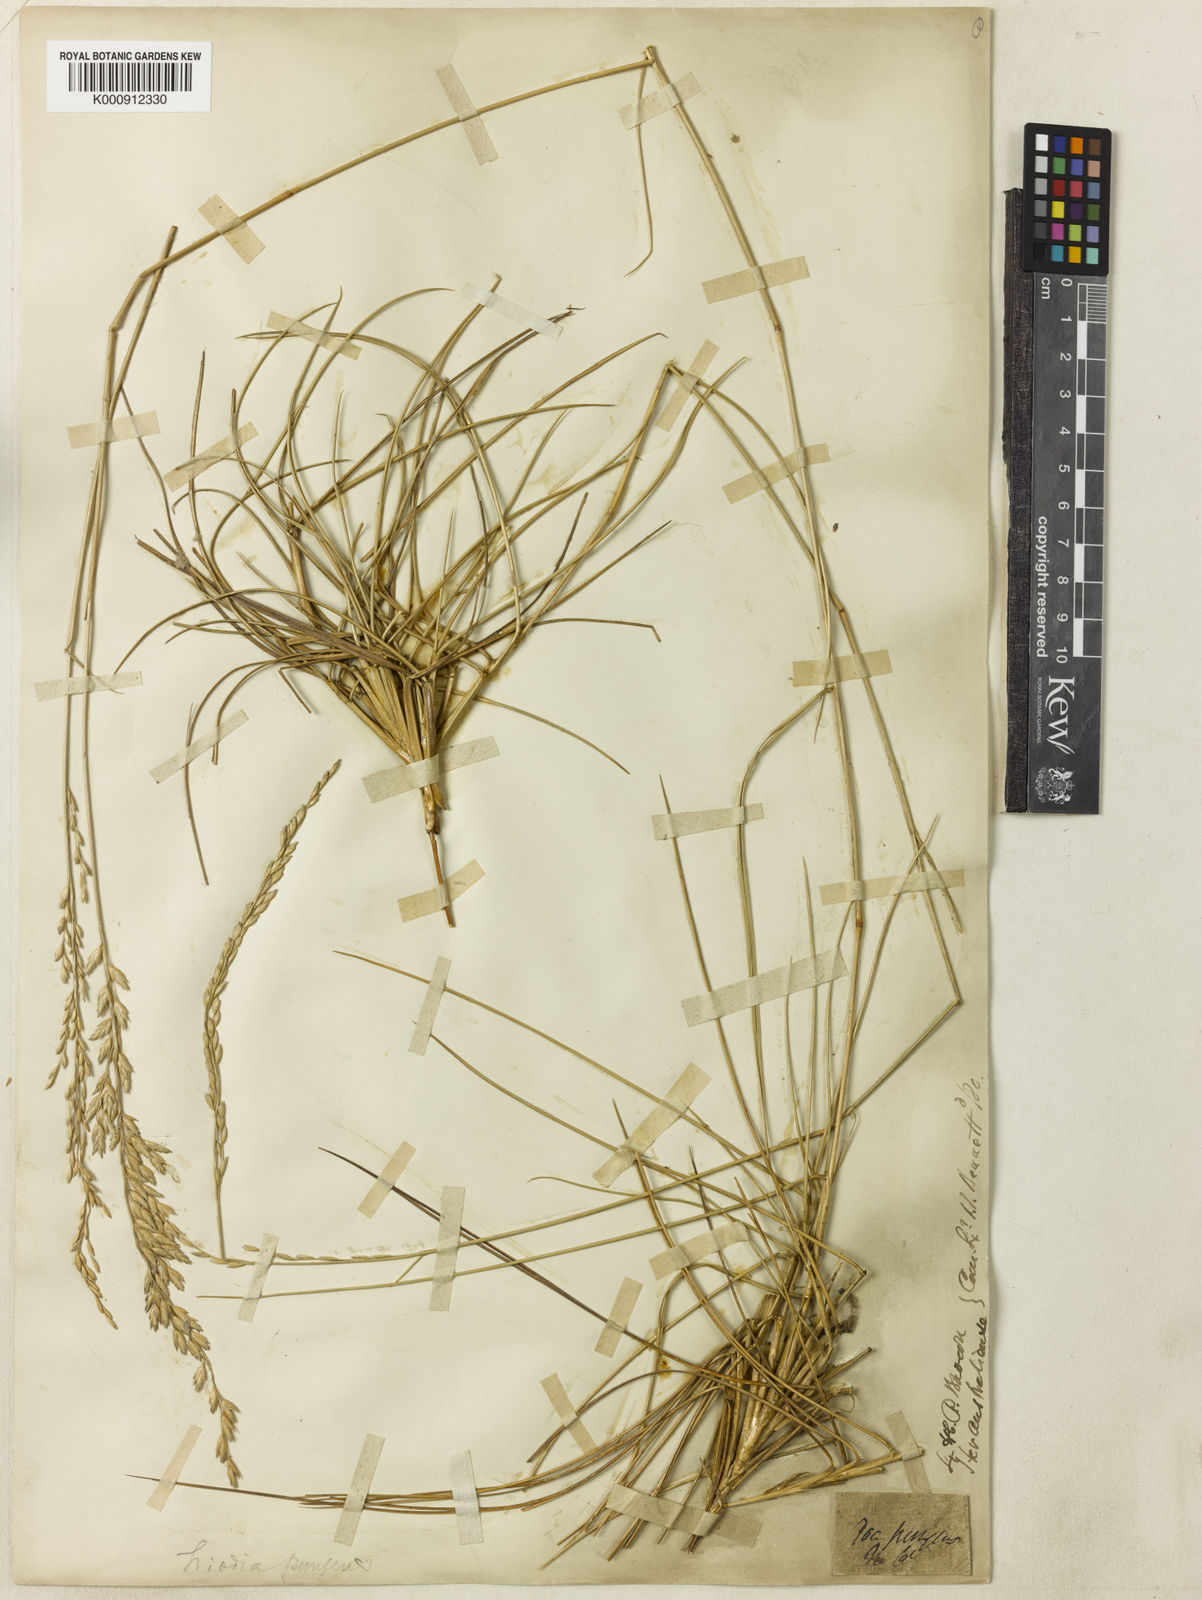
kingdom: Plantae
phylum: Tracheophyta
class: Liliopsida
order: Poales
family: Poaceae
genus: Triodia
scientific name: Triodia pungens
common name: Soft spinifex
